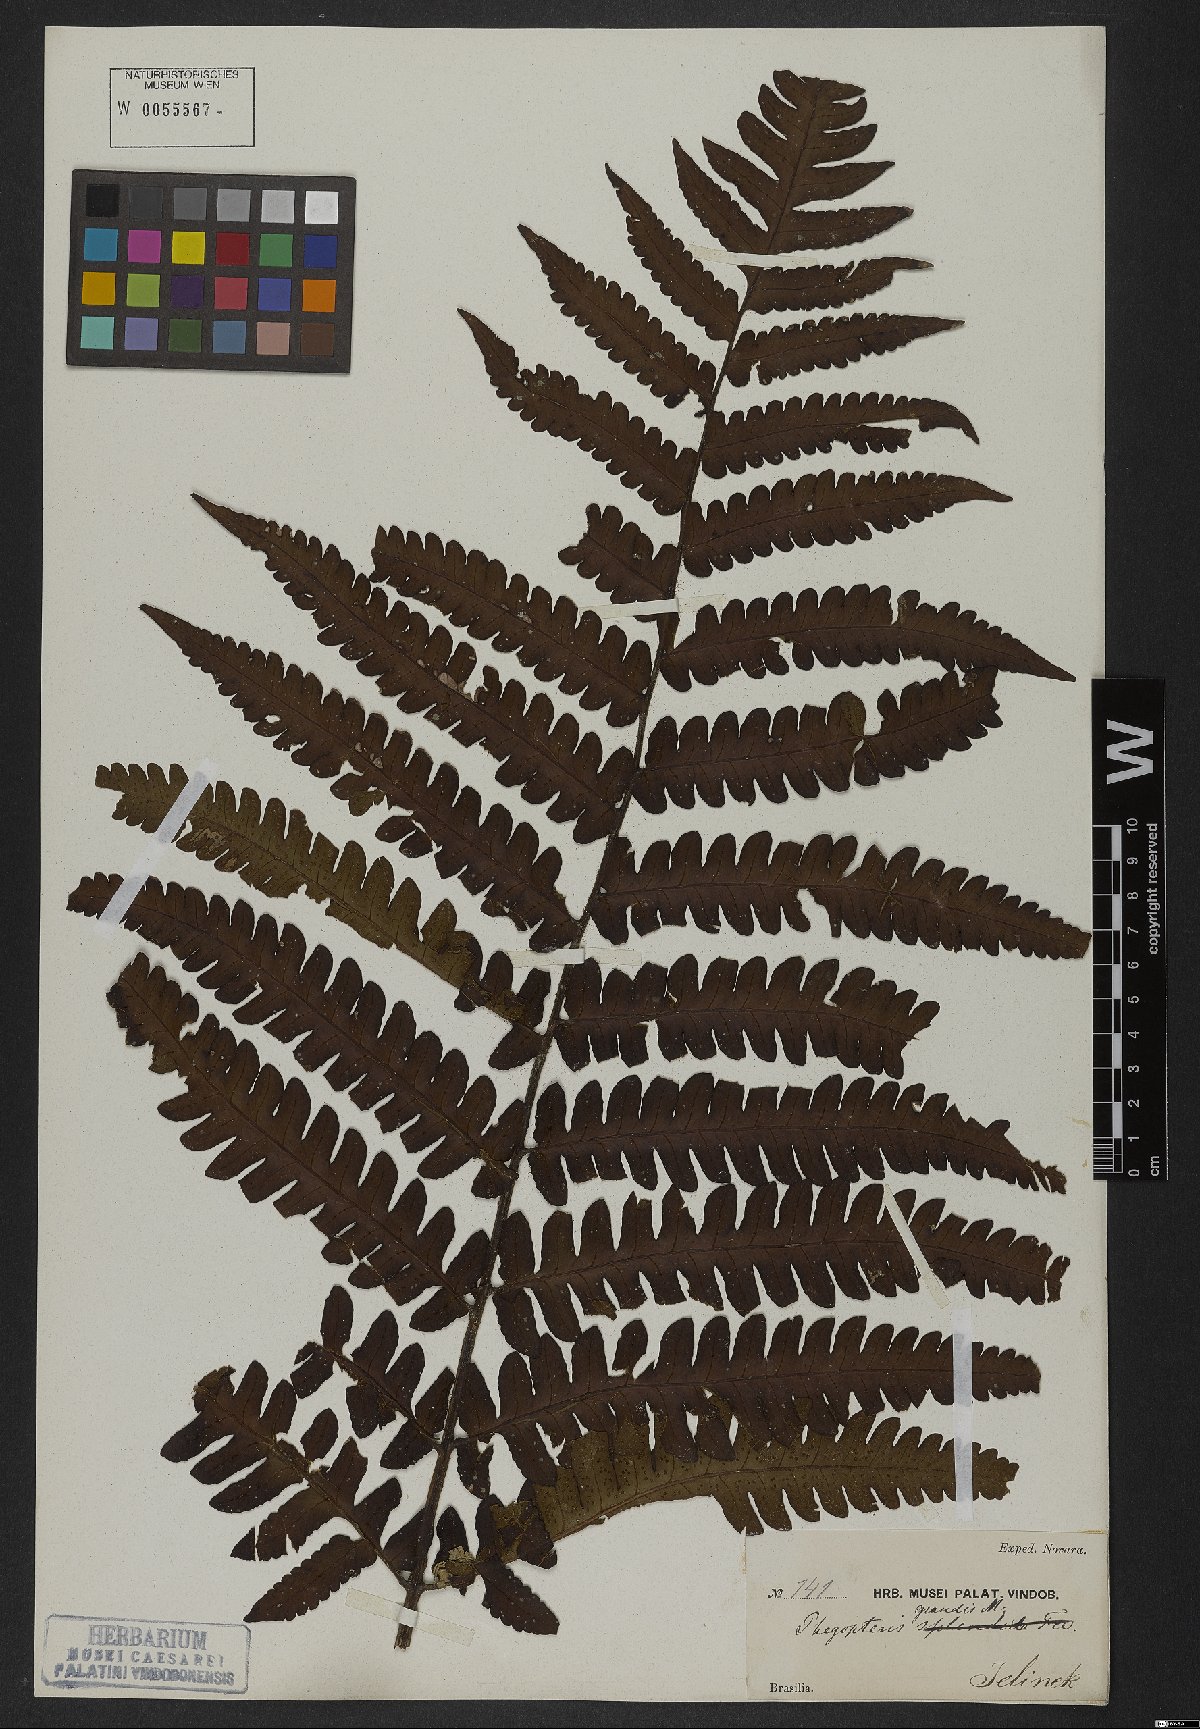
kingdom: Plantae
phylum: Tracheophyta
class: Polypodiopsida
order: Polypodiales
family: Dryopteridaceae
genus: Megalastrum
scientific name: Megalastrum grande
